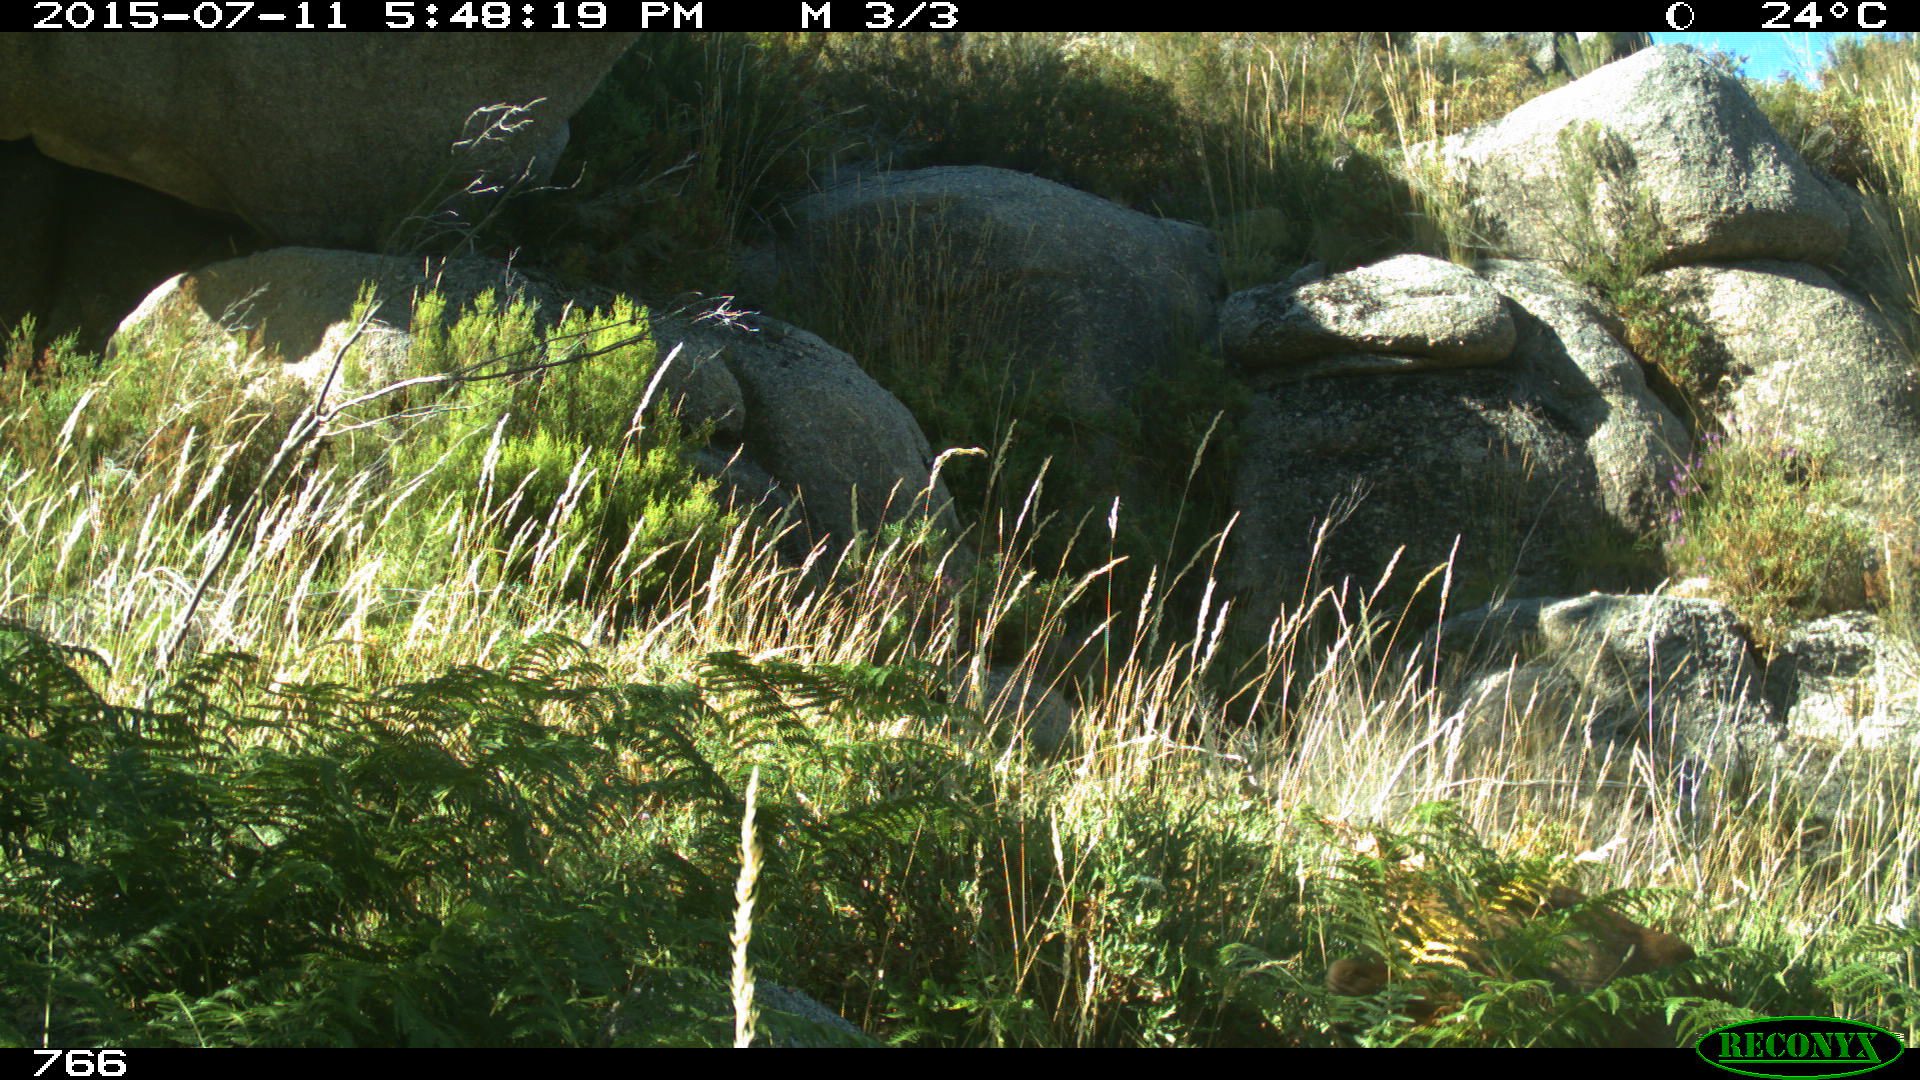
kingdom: Animalia
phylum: Chordata
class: Mammalia
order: Artiodactyla
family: Cervidae
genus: Capreolus
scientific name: Capreolus capreolus
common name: Western roe deer
